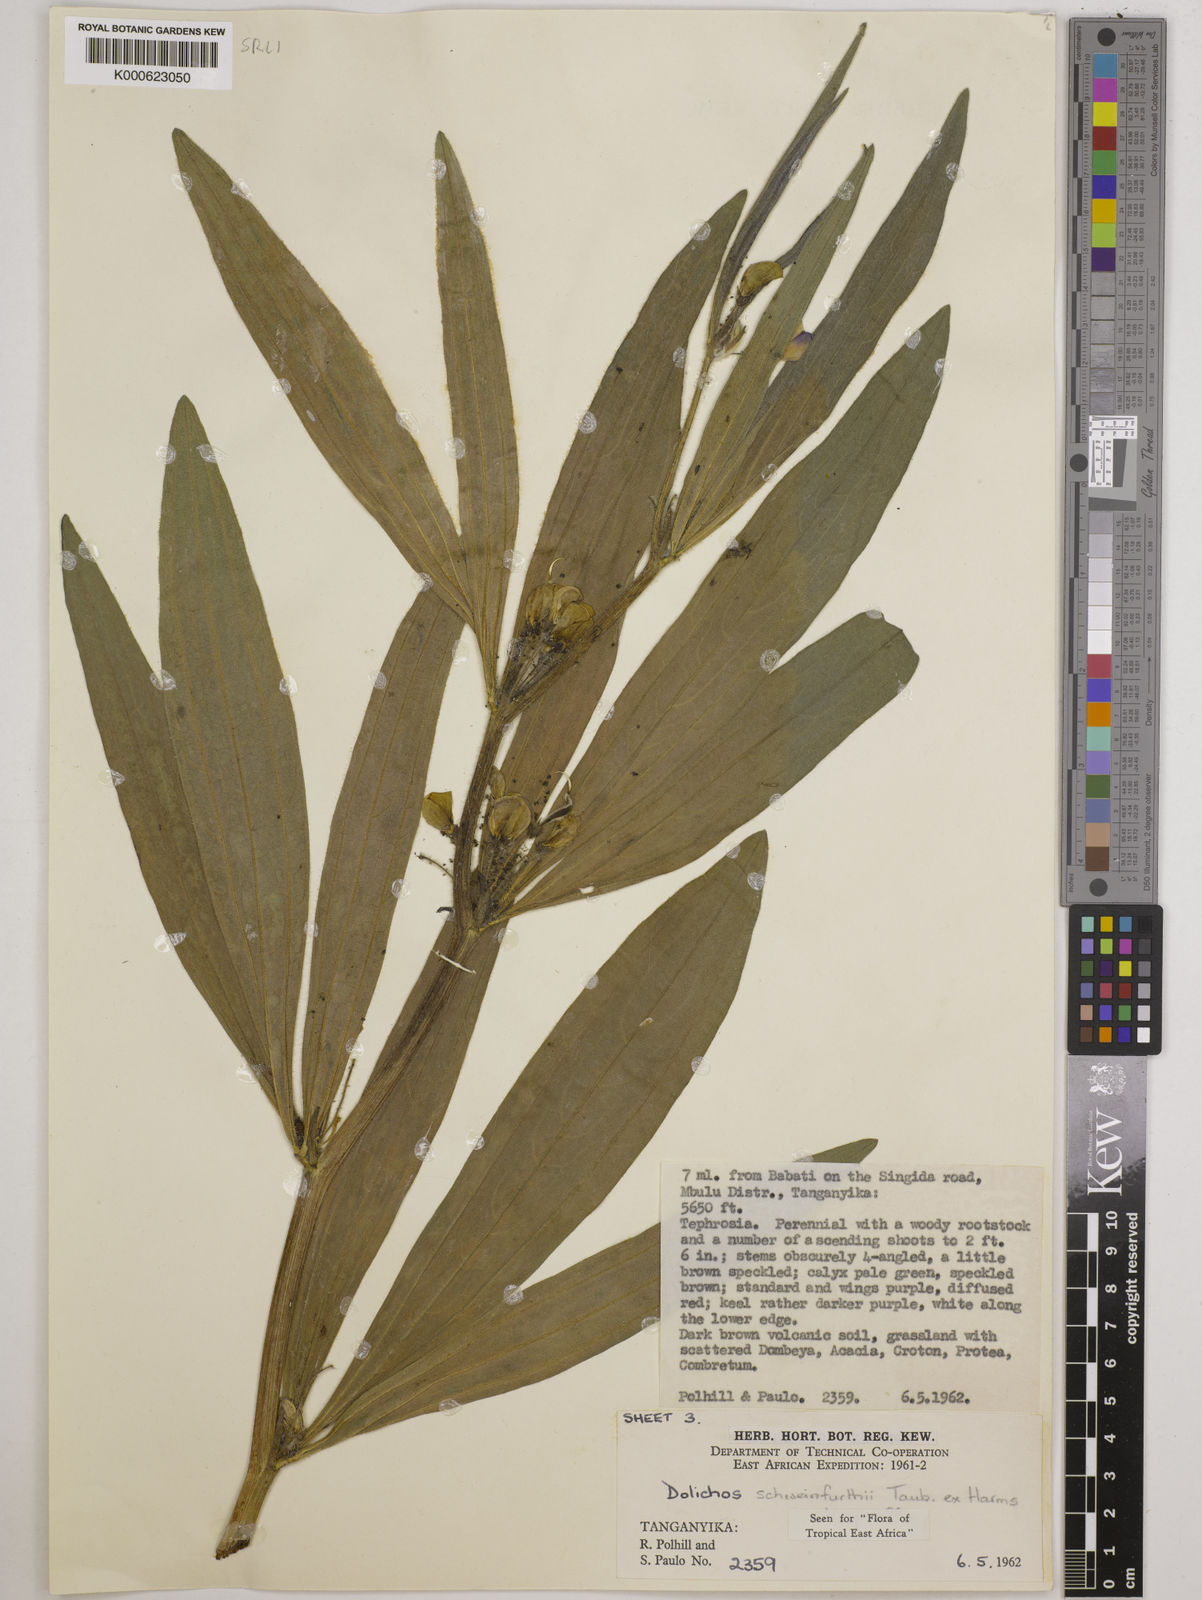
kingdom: Plantae
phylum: Tracheophyta
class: Magnoliopsida
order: Fabales
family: Fabaceae
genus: Dolichos
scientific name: Dolichos
